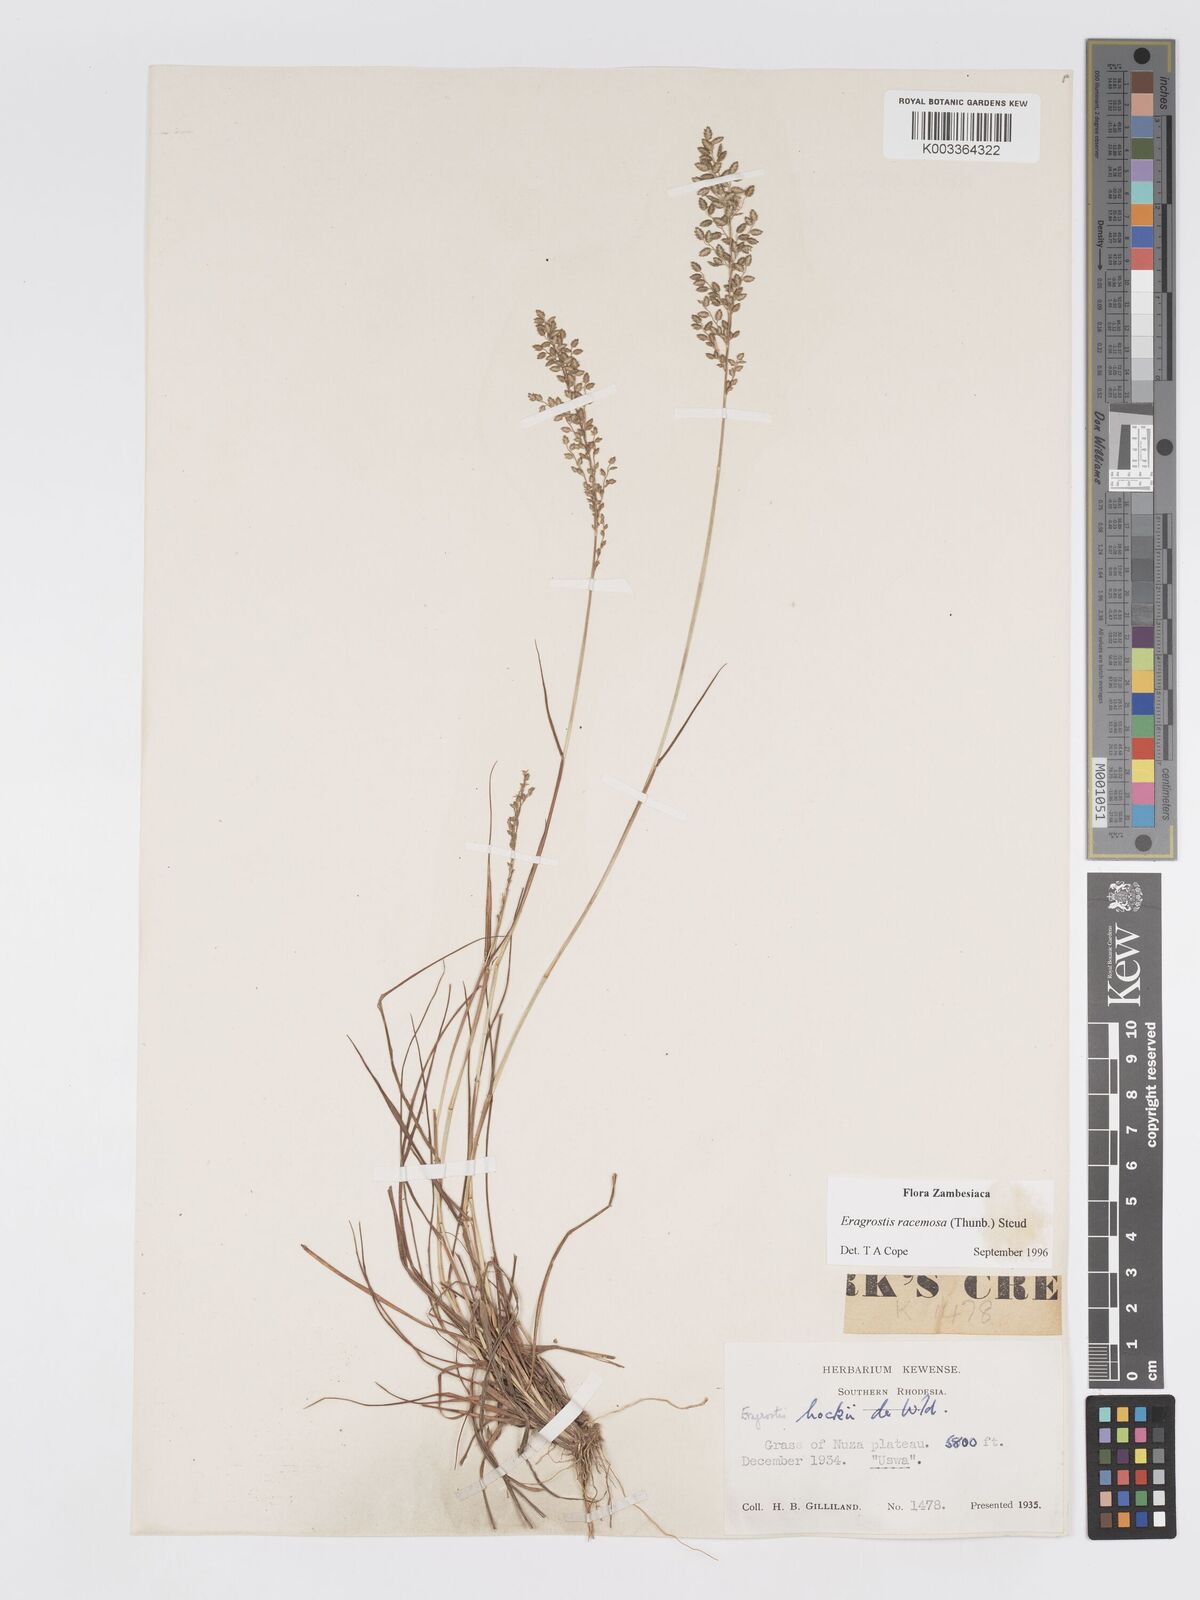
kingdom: Plantae
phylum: Tracheophyta
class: Liliopsida
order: Poales
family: Poaceae
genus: Eragrostis
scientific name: Eragrostis racemosa
